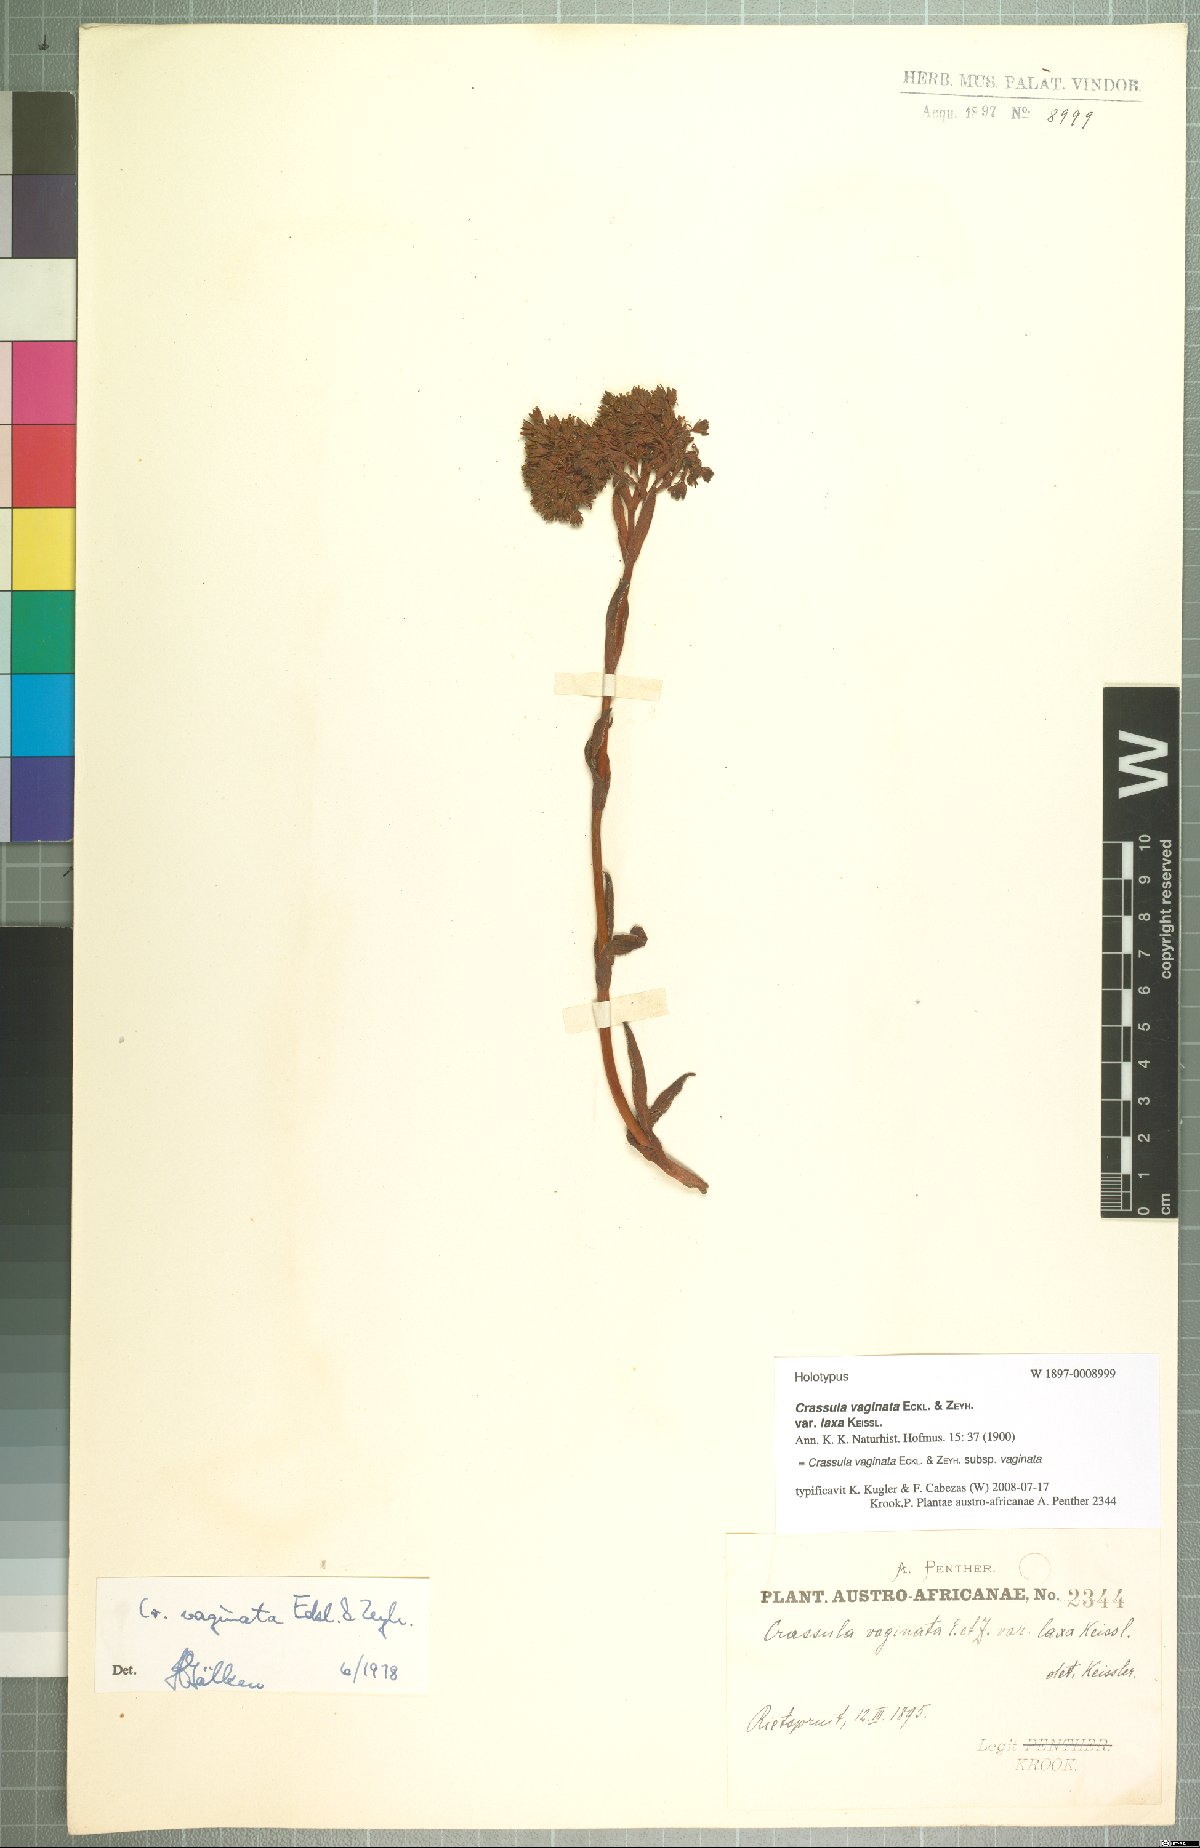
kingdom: Plantae
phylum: Tracheophyta
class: Magnoliopsida
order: Saxifragales
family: Crassulaceae
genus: Crassula
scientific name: Crassula vaginata
